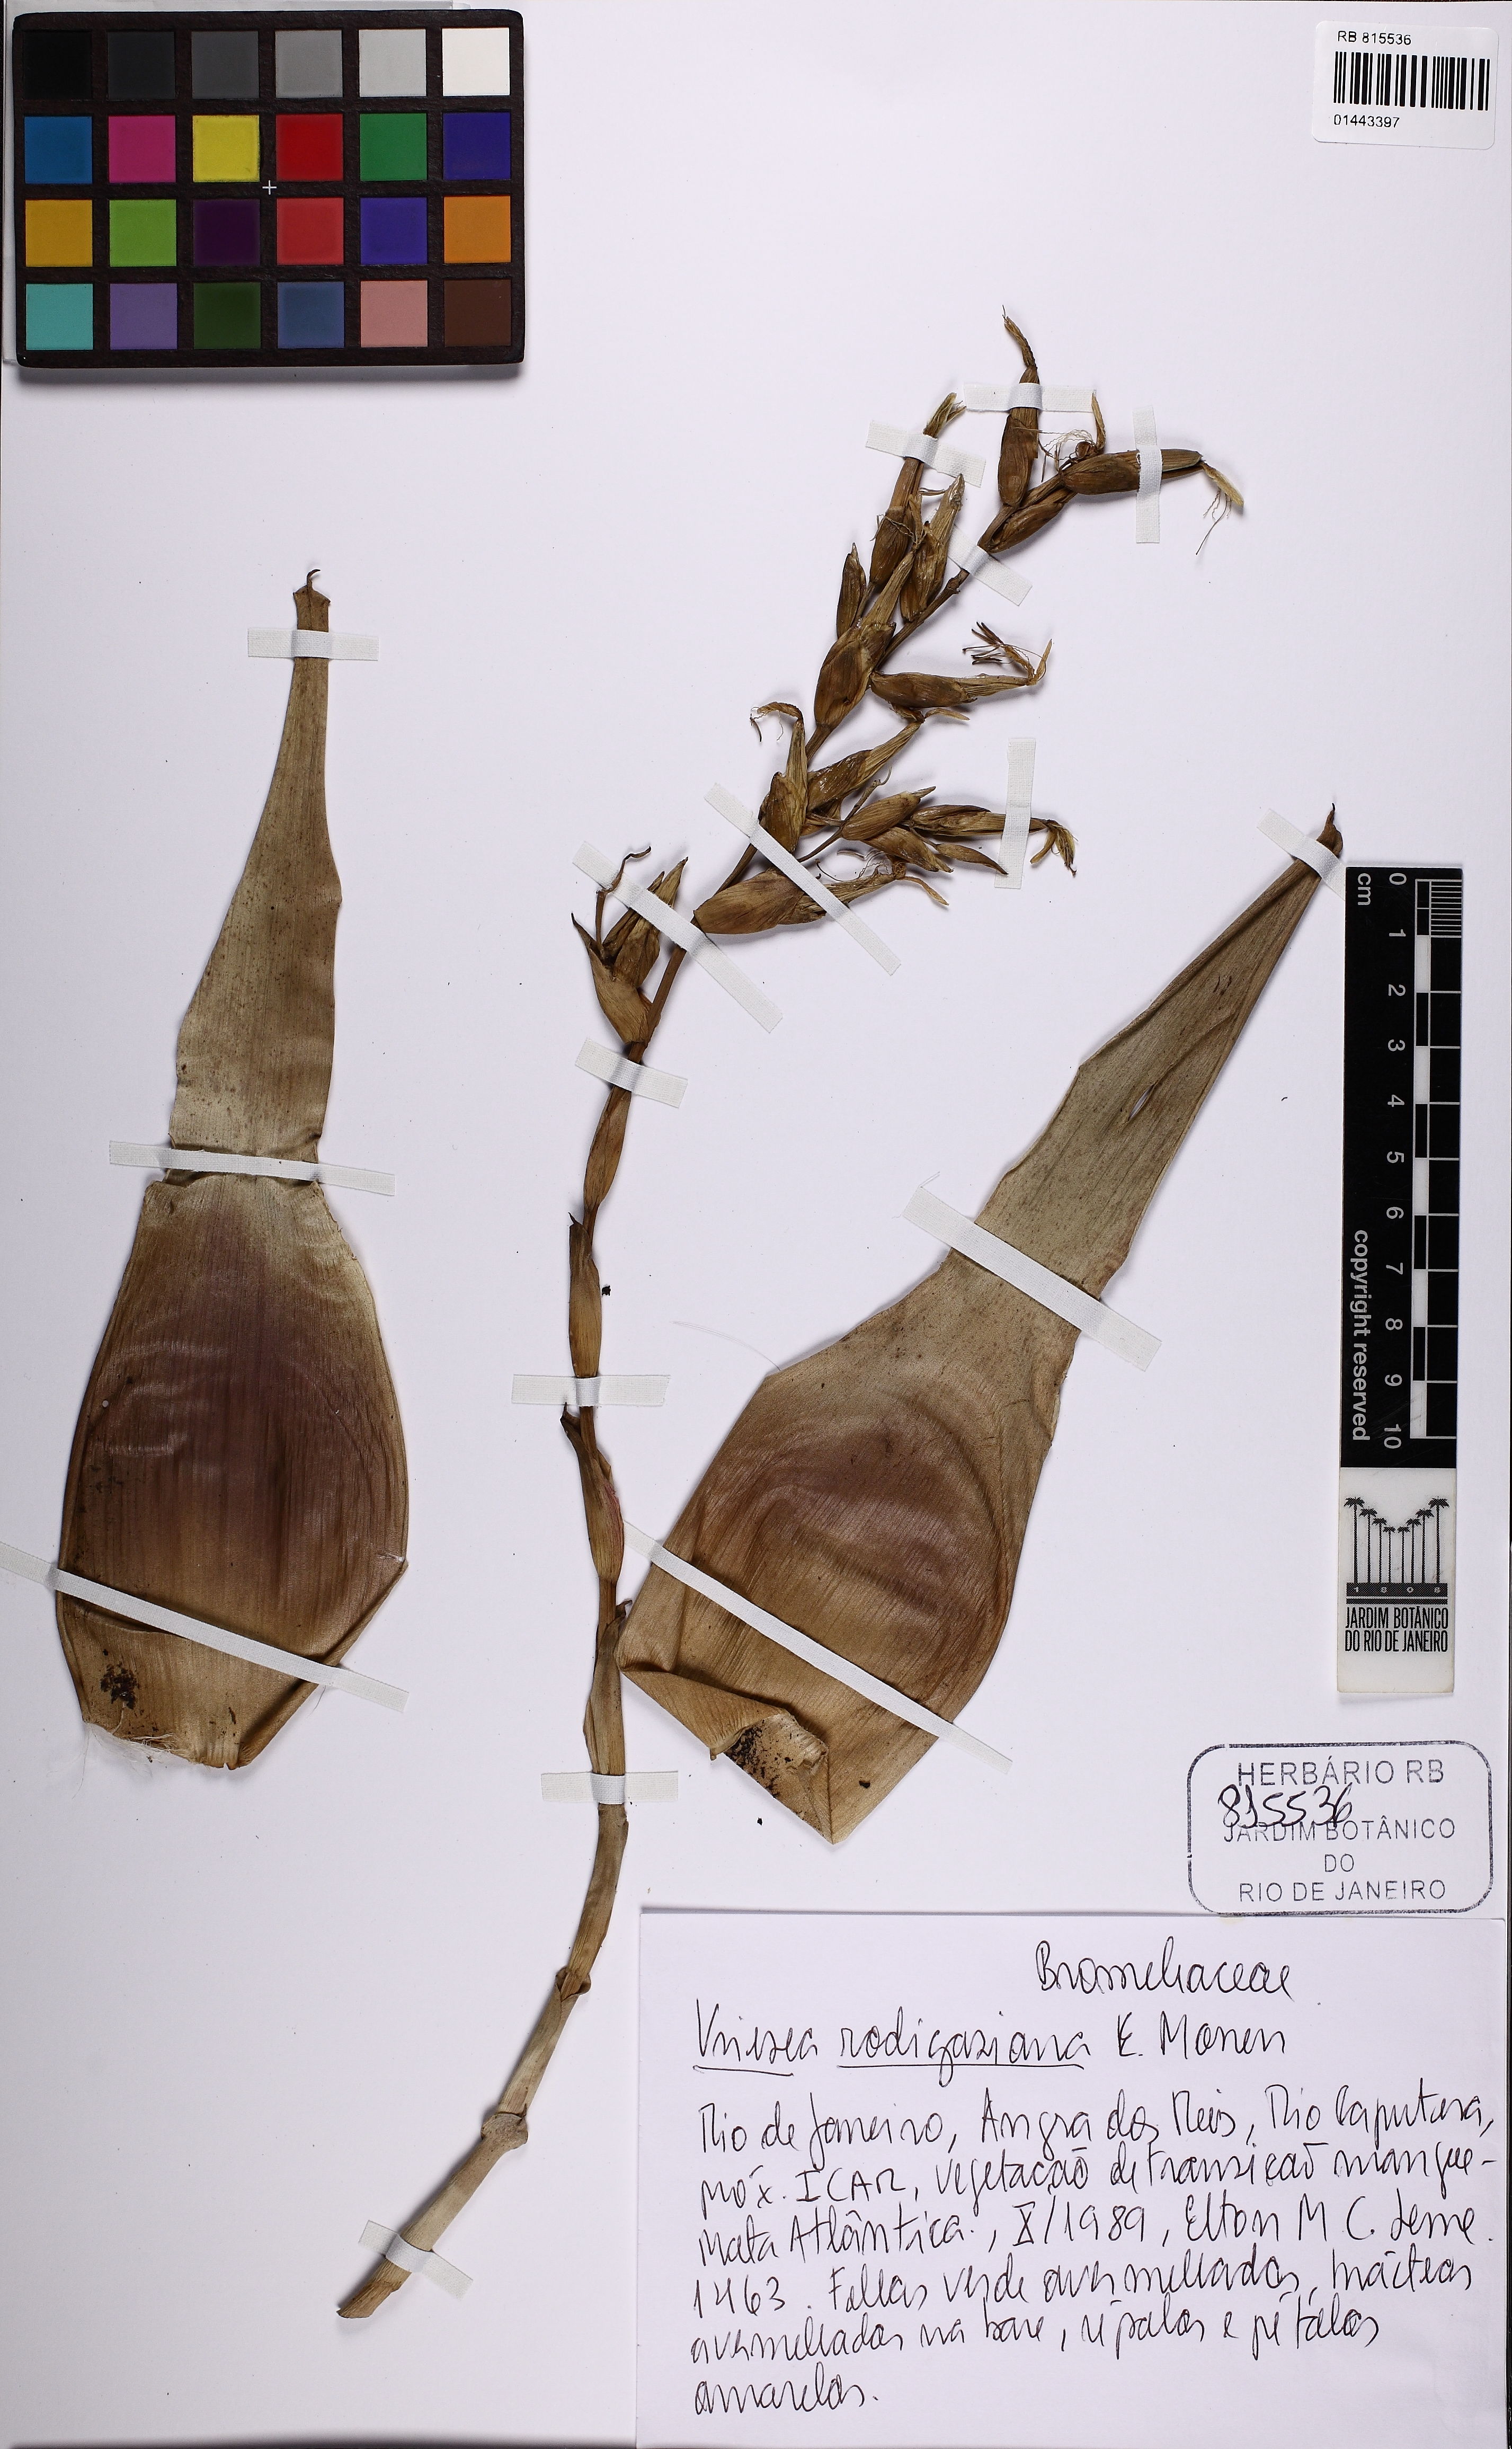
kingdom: Plantae
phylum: Tracheophyta
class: Liliopsida
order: Poales
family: Bromeliaceae
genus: Vriesea
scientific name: Vriesea rodigasiana
